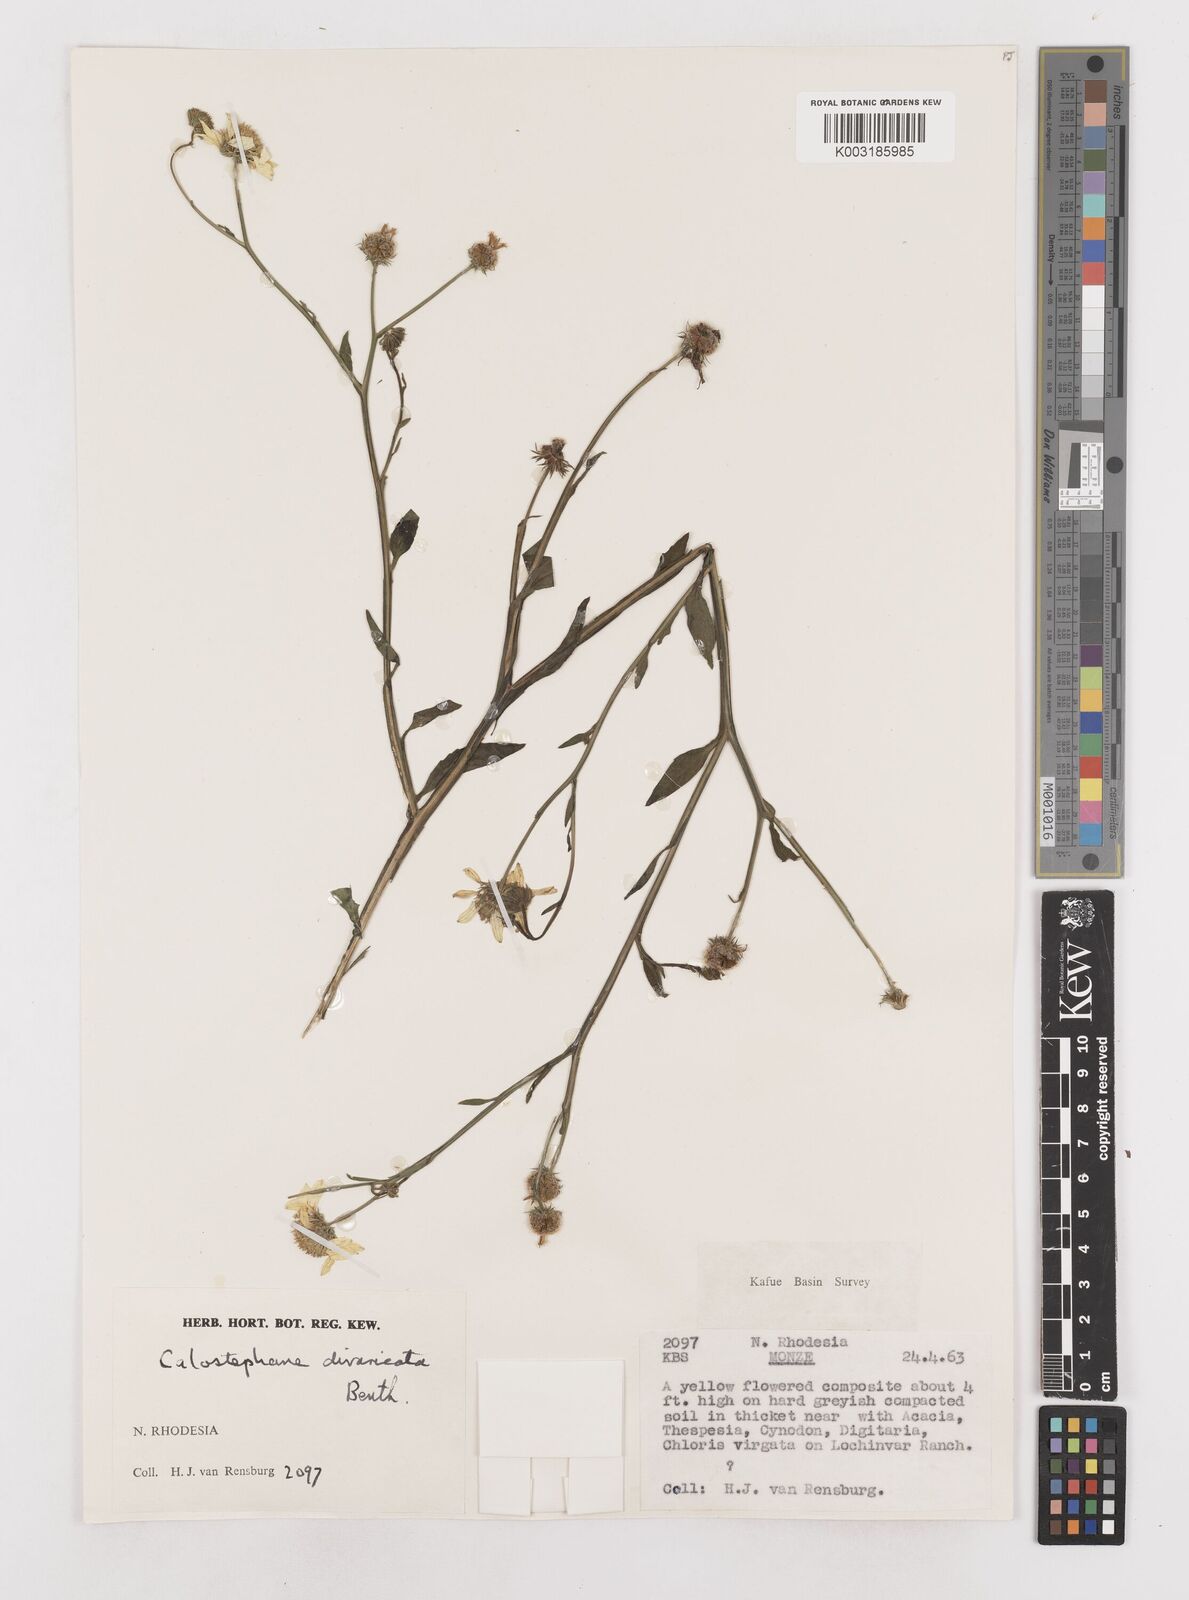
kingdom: Plantae
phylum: Tracheophyta
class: Magnoliopsida
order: Asterales
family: Asteraceae
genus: Calostephane
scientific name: Calostephane divaricata
